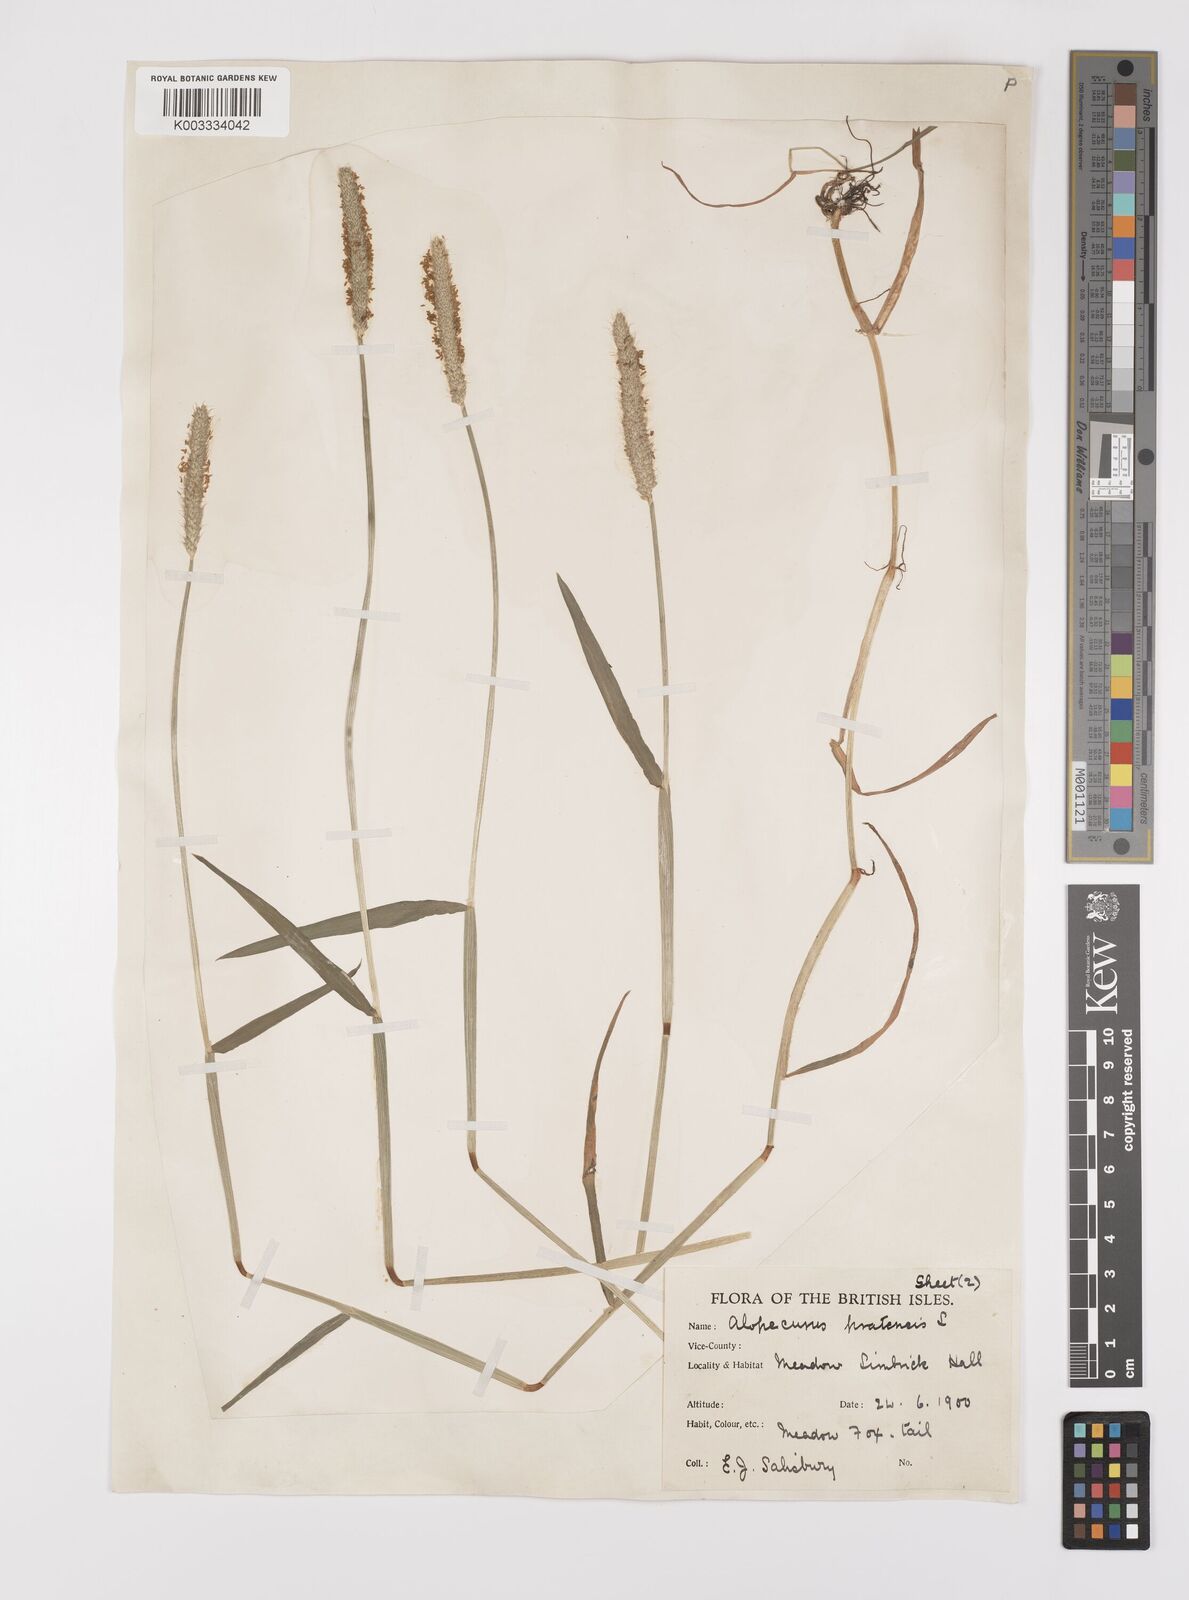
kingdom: Plantae
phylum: Tracheophyta
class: Liliopsida
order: Poales
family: Poaceae
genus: Alopecurus
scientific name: Alopecurus geniculatus
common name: Water foxtail
